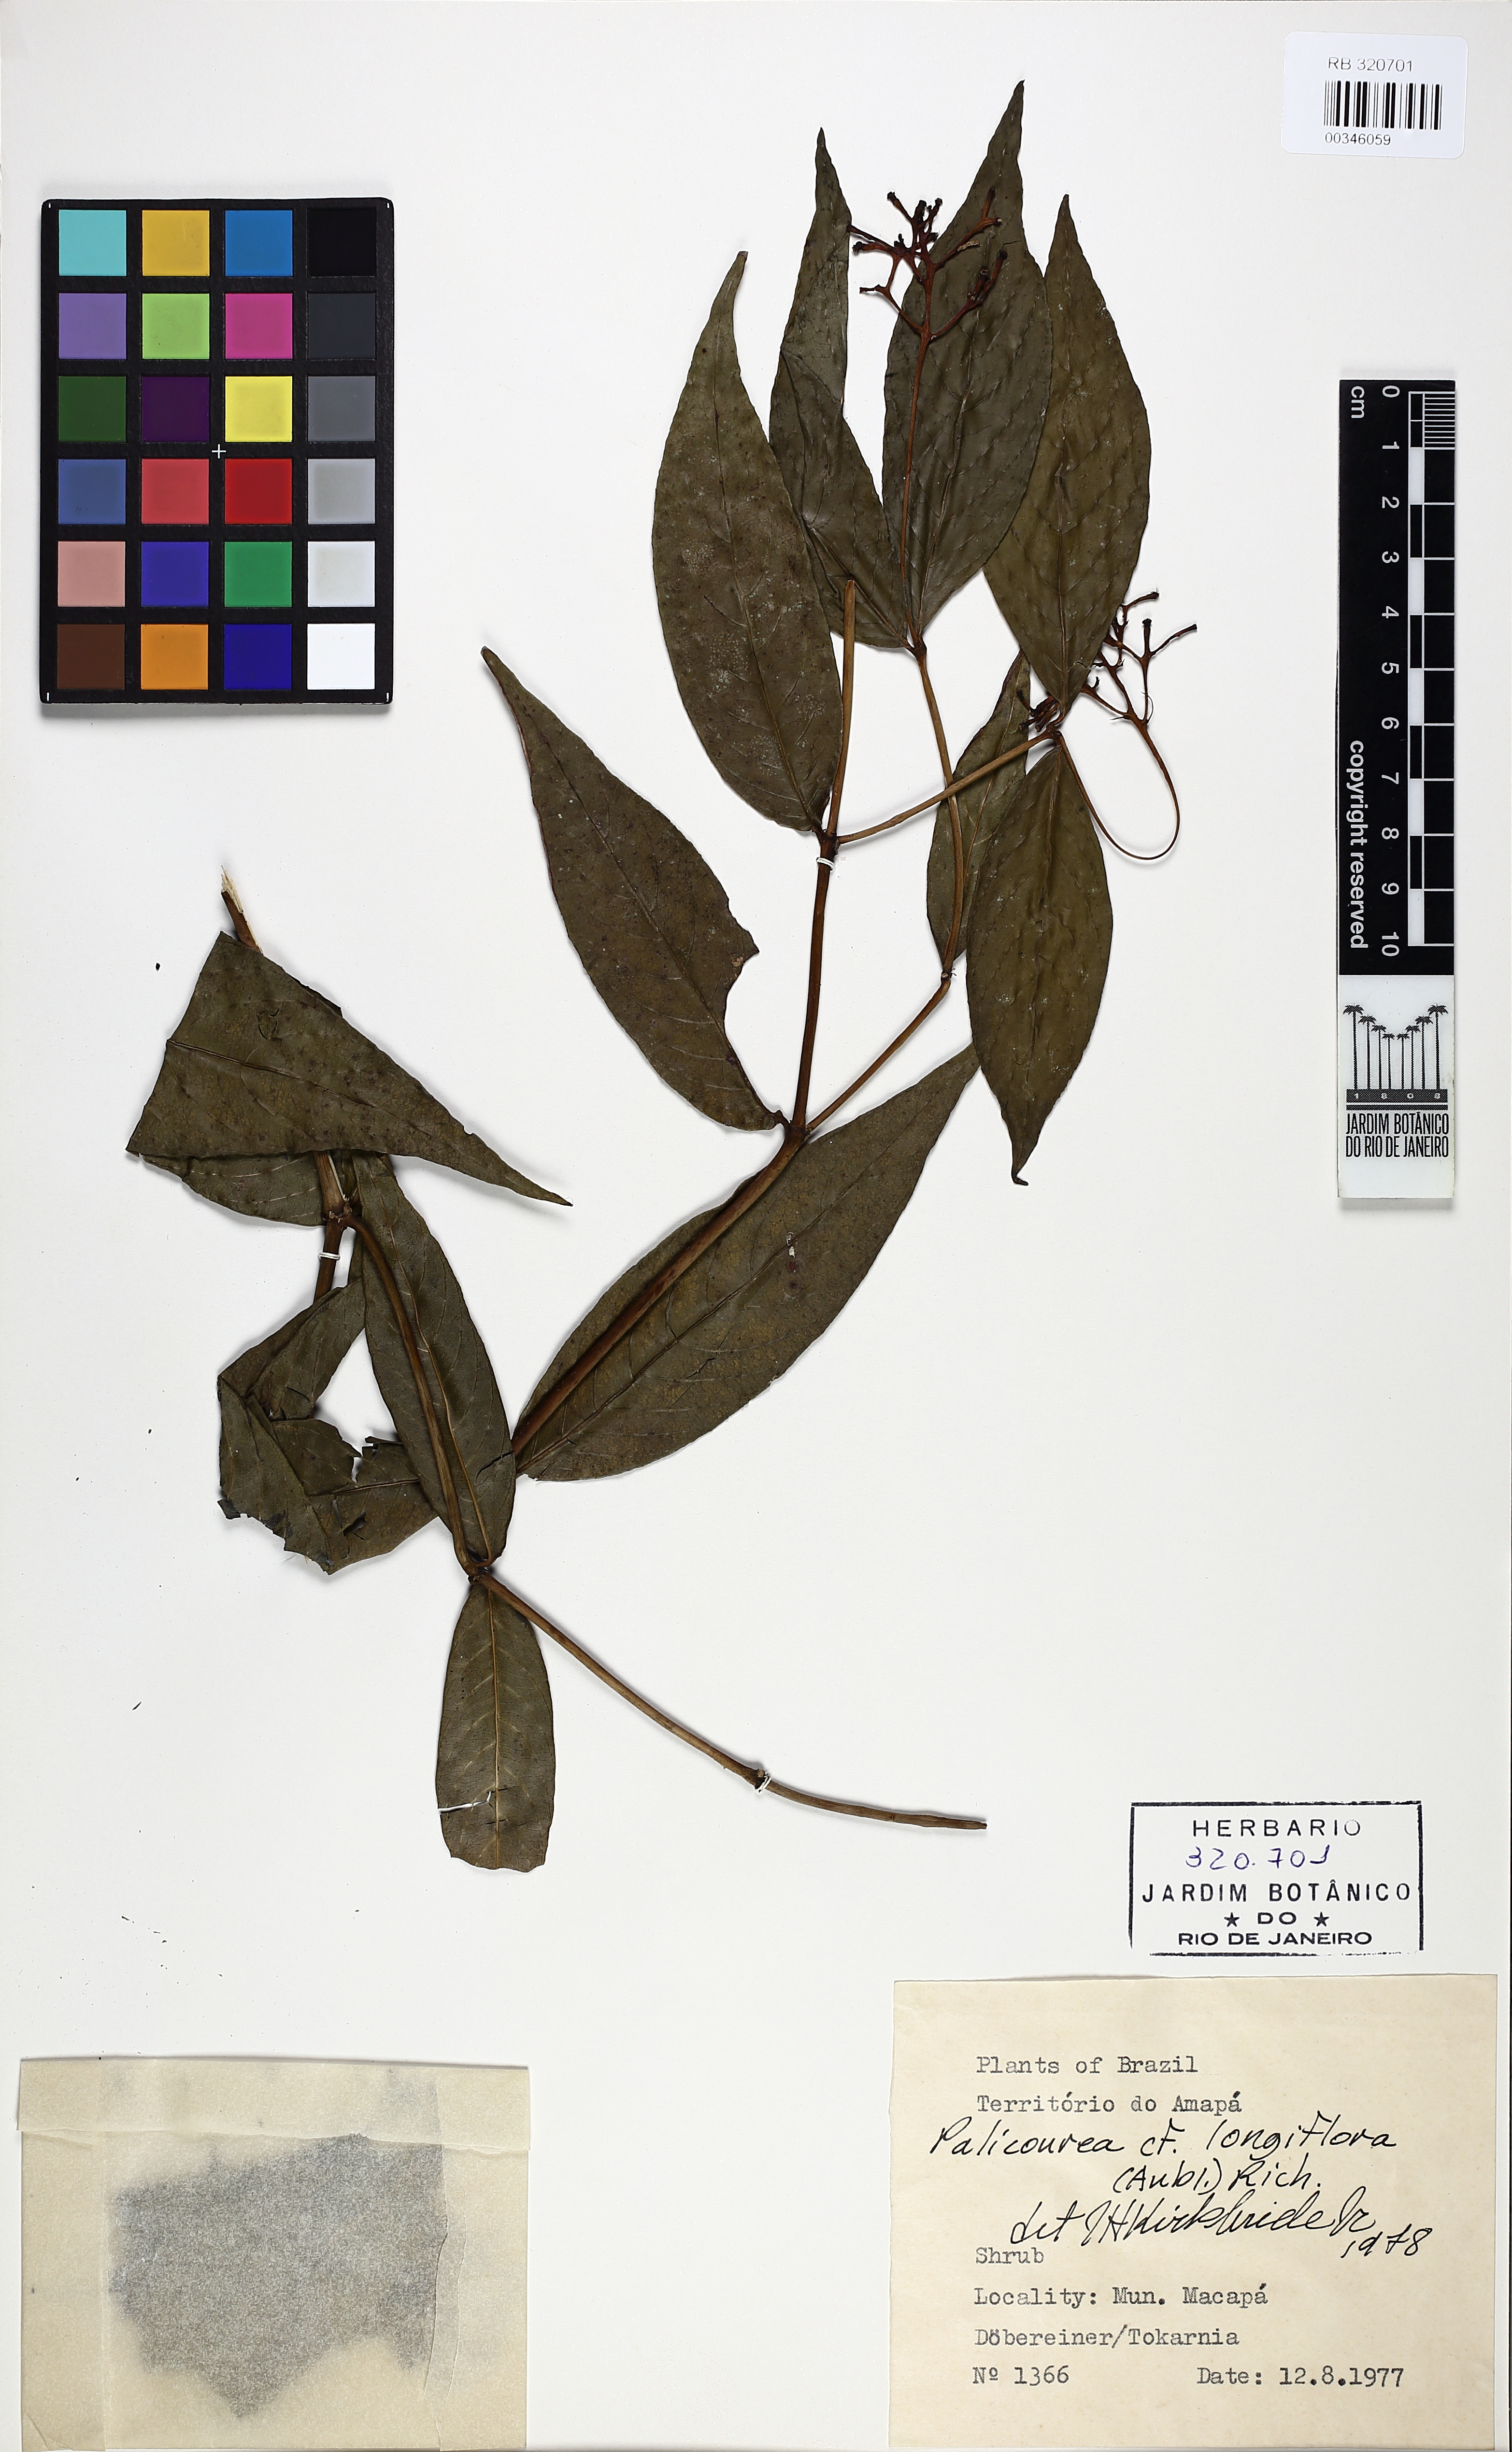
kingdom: Plantae
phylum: Tracheophyta
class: Magnoliopsida
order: Gentianales
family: Rubiaceae
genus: Palicourea
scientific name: Palicourea longiflora
